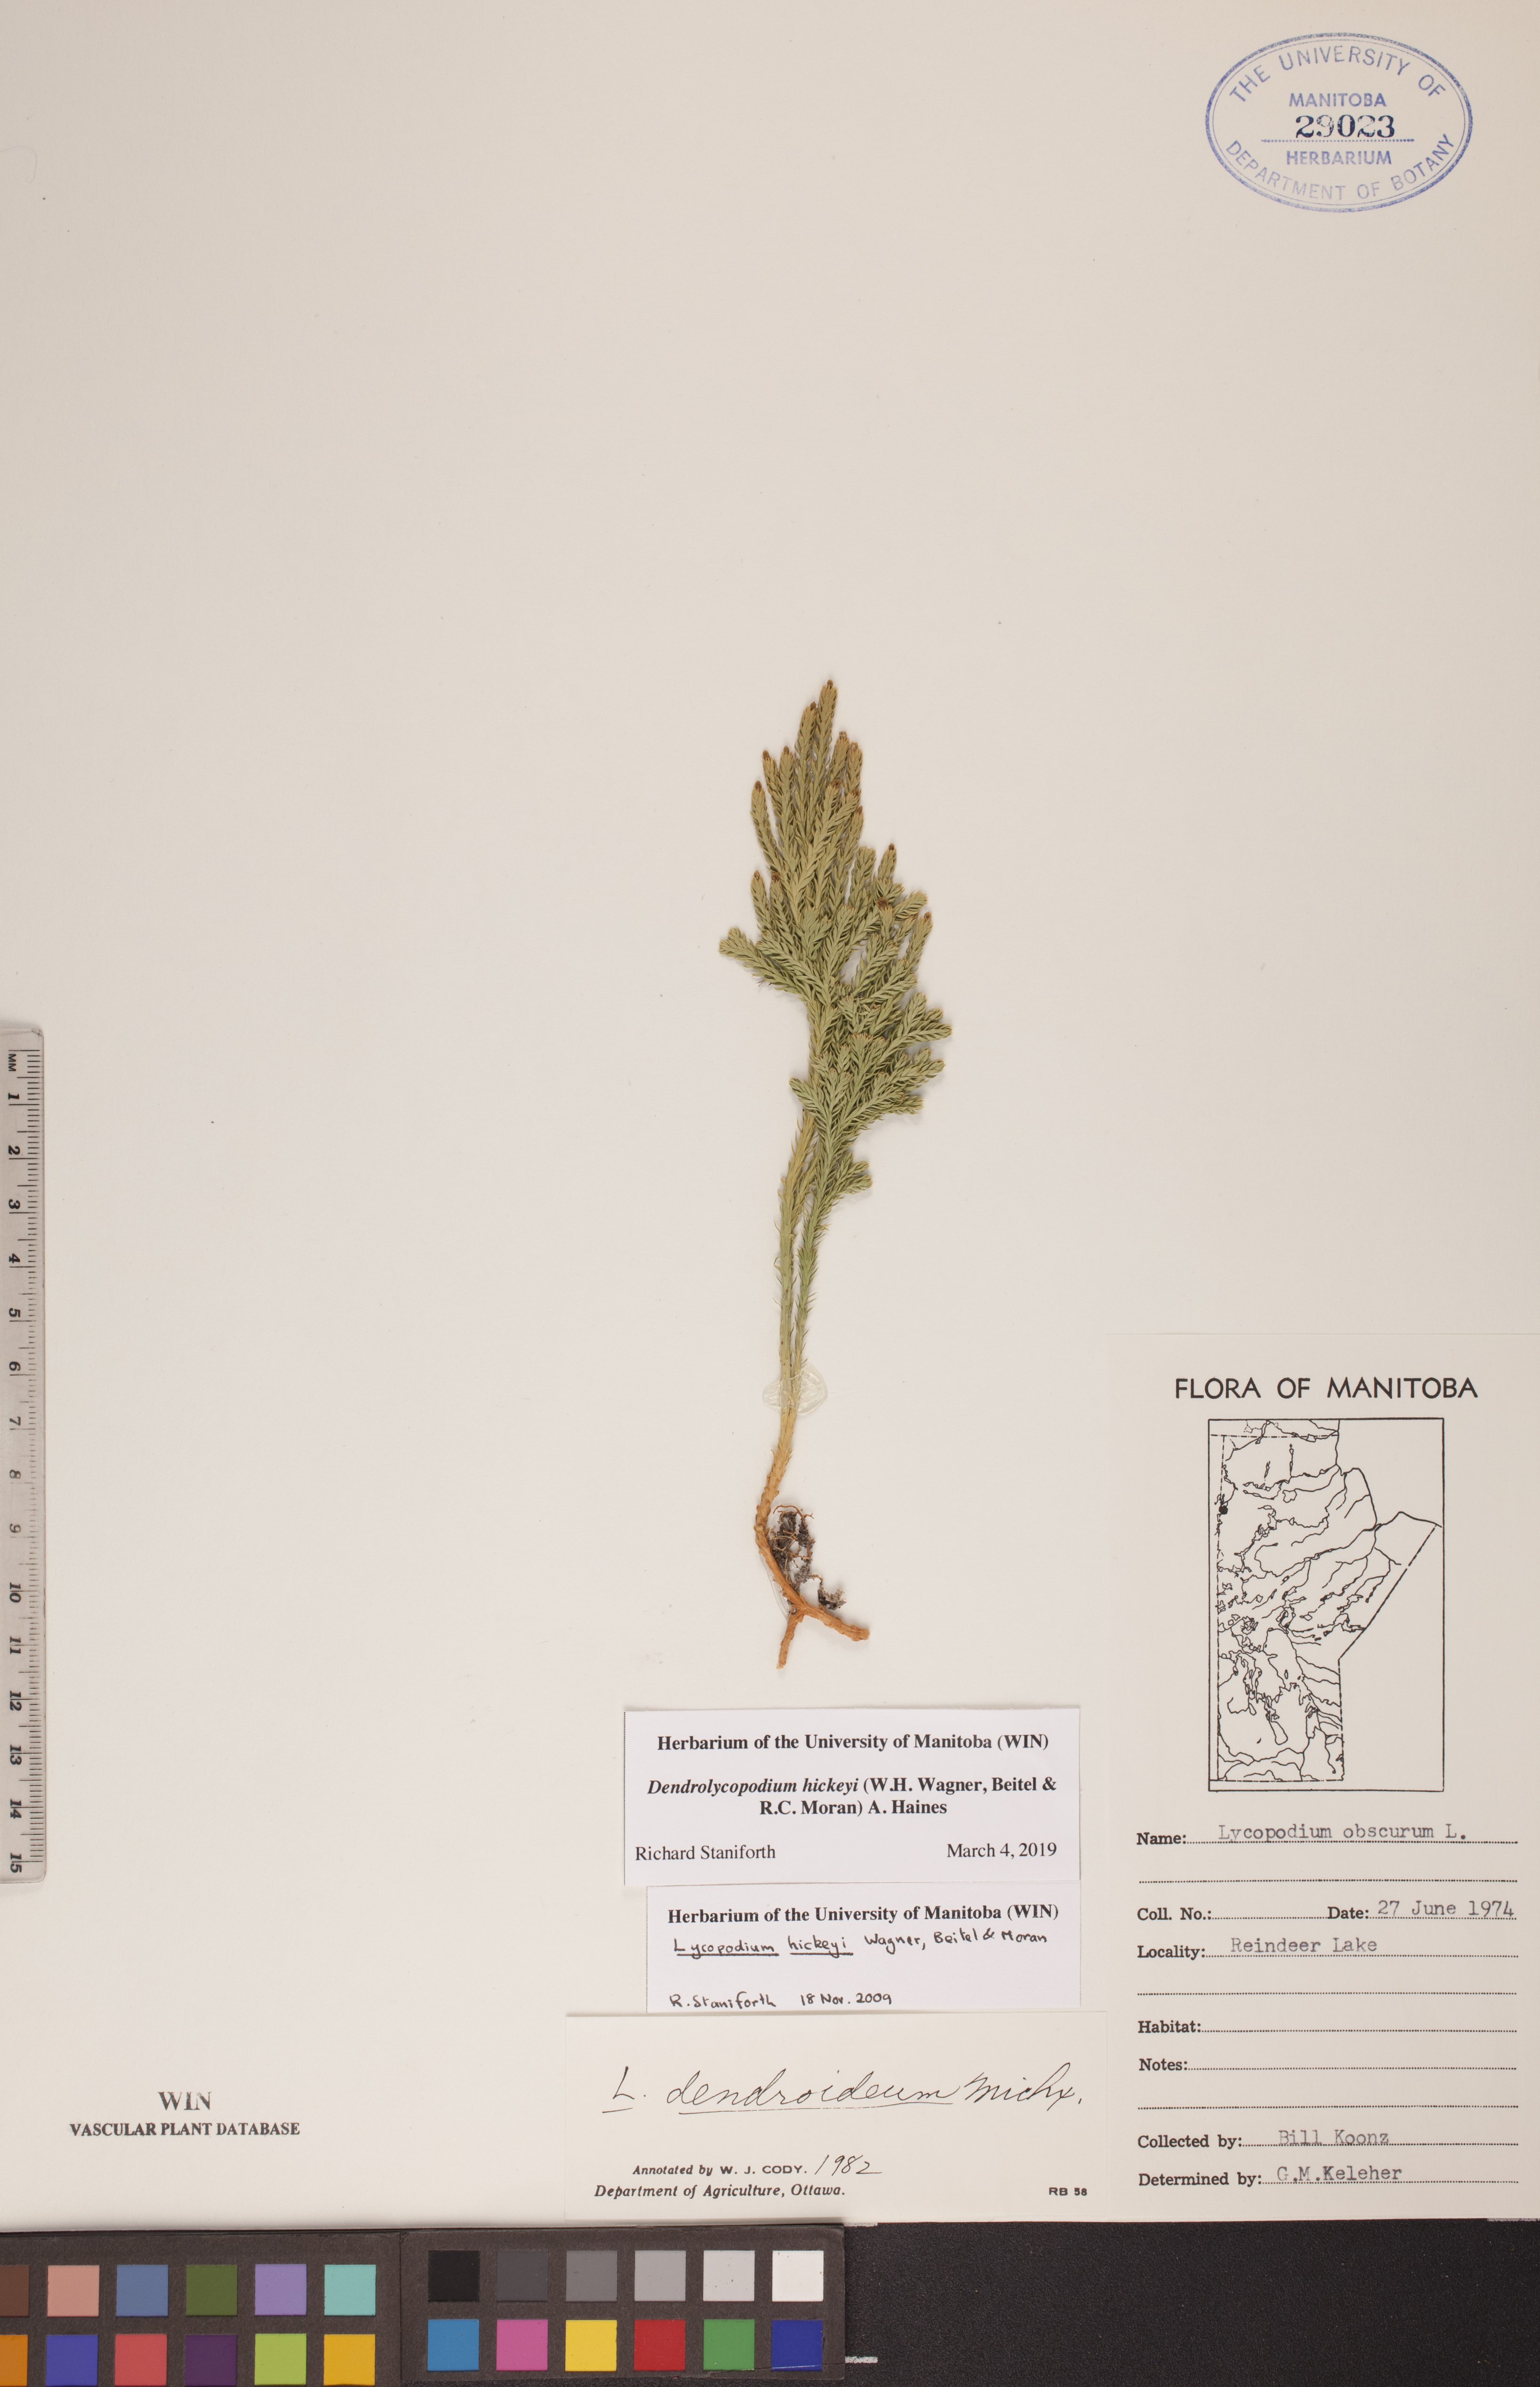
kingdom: Plantae
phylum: Tracheophyta
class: Lycopodiopsida
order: Lycopodiales
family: Lycopodiaceae
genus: Dendrolycopodium
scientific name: Dendrolycopodium hickeyi
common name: Hickey's clubmoss
